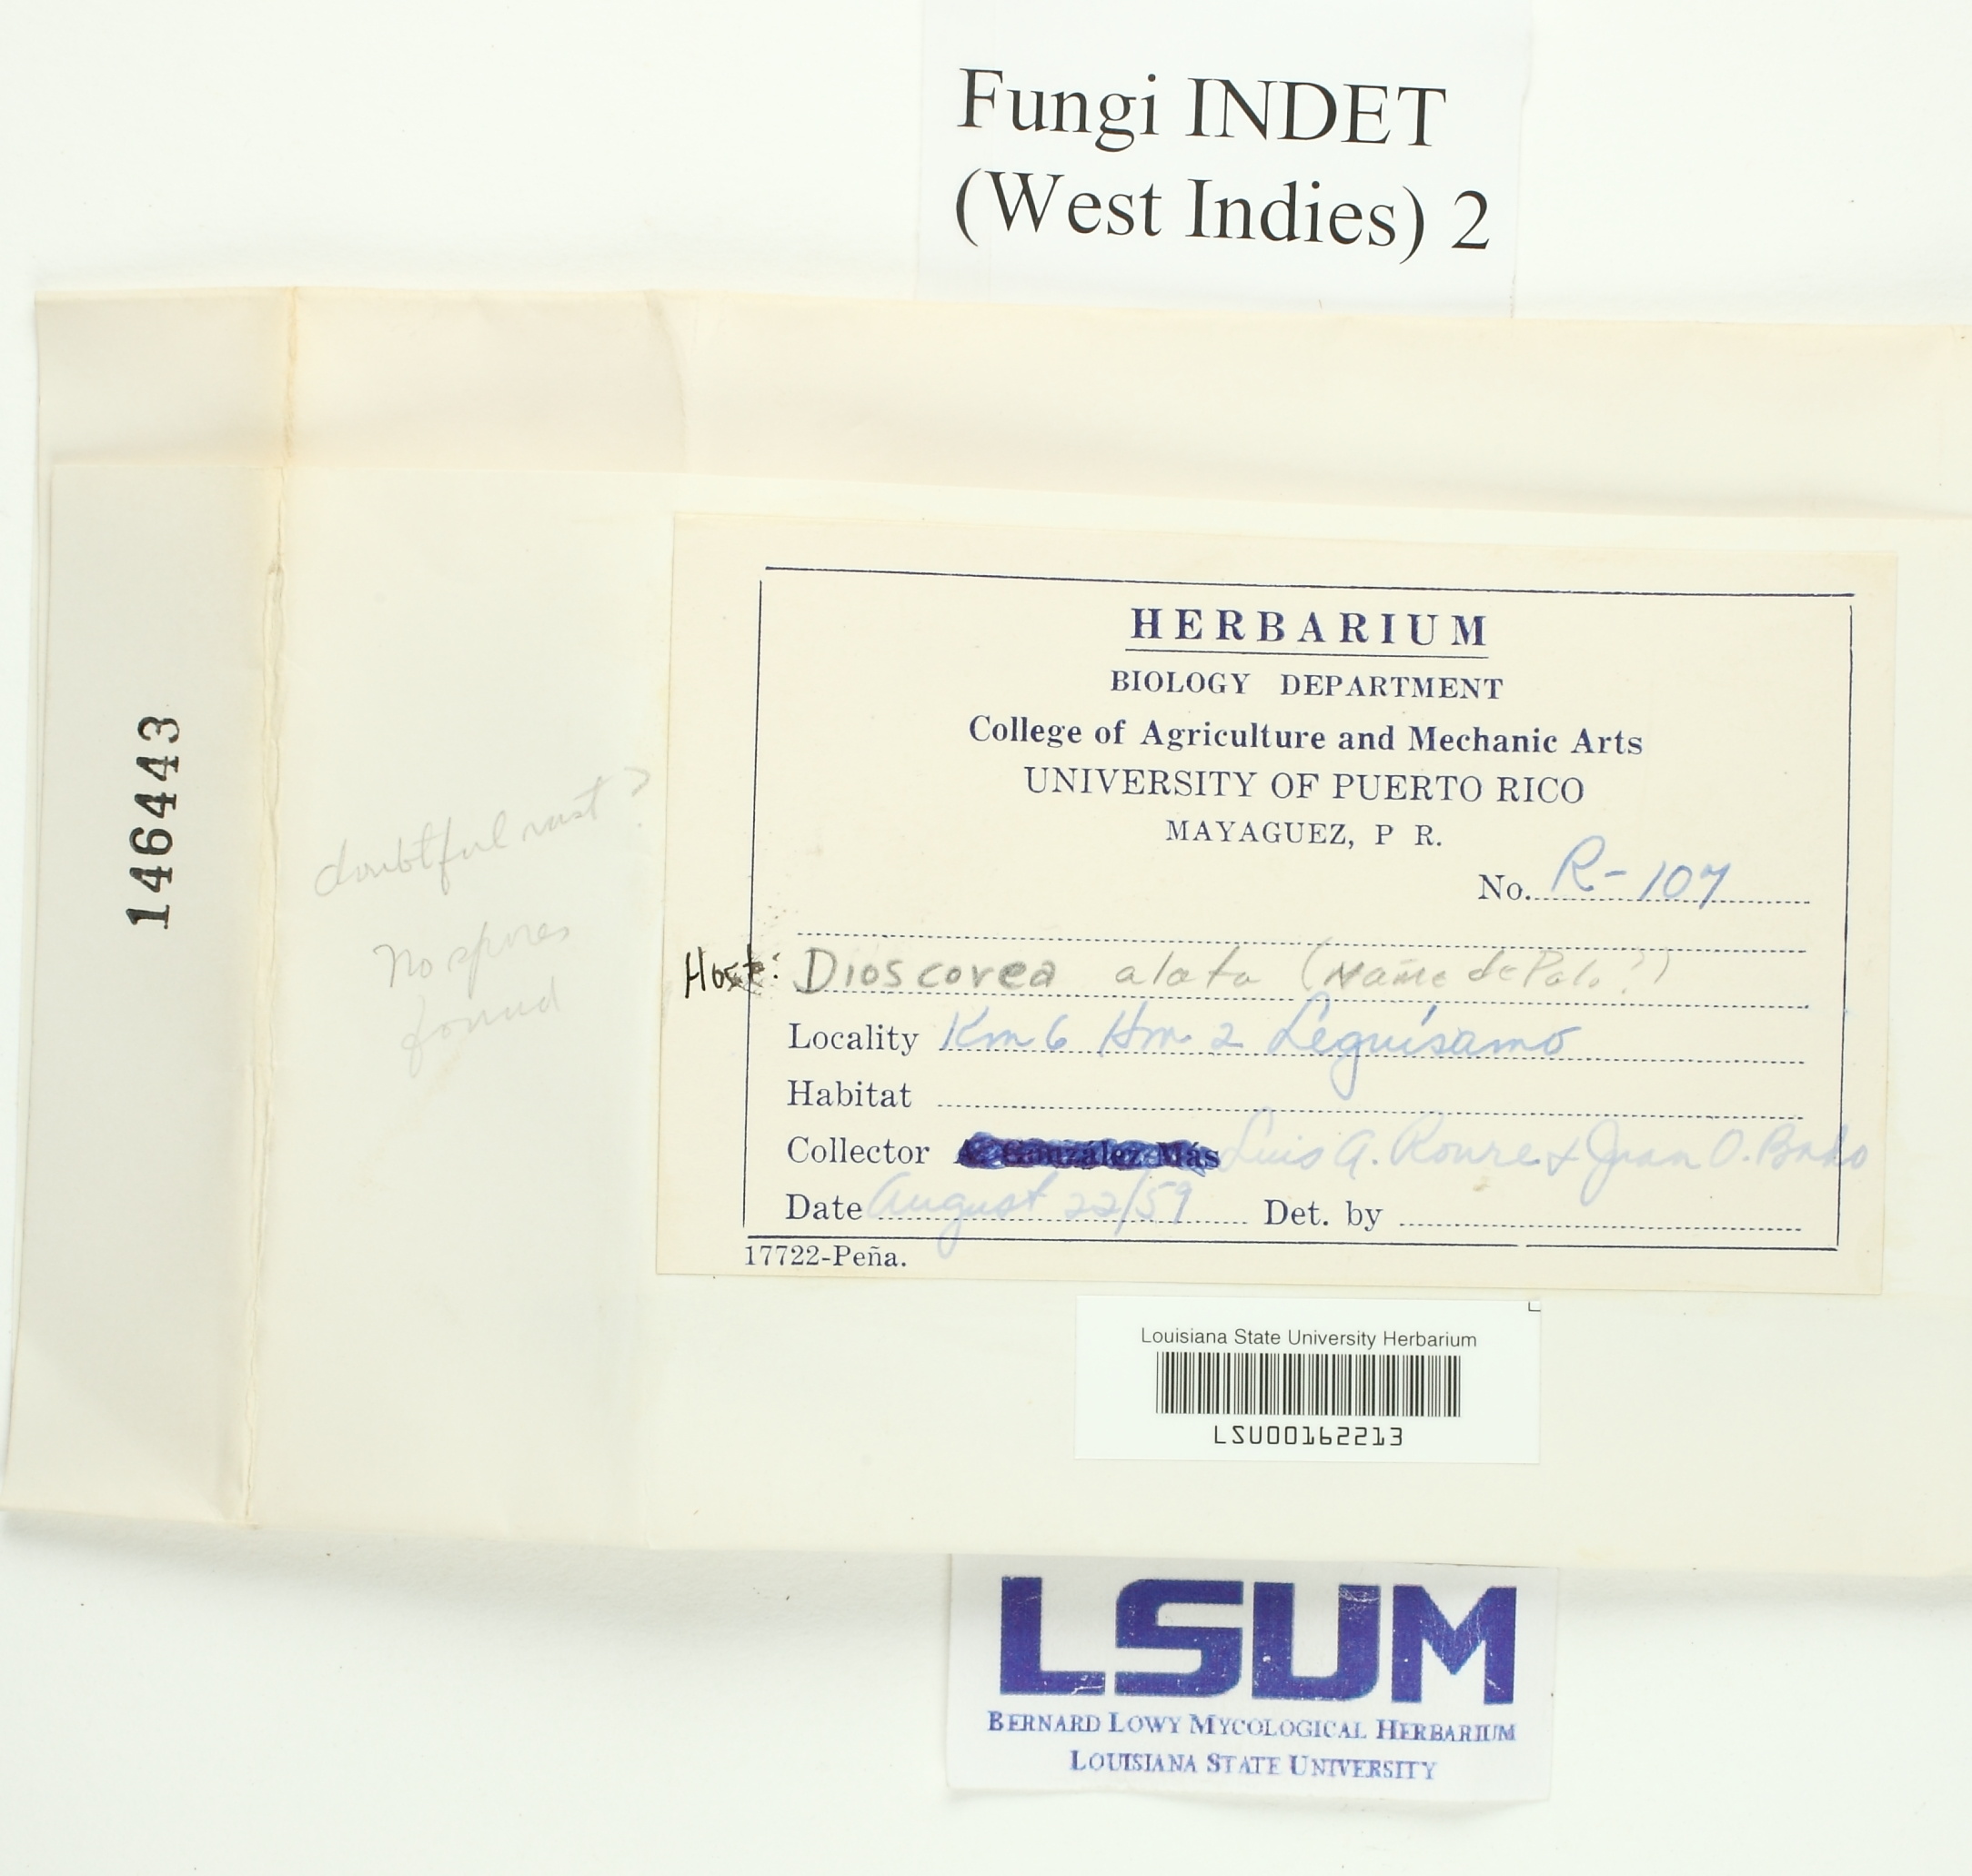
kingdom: Fungi
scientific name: Fungi
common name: Fungi
